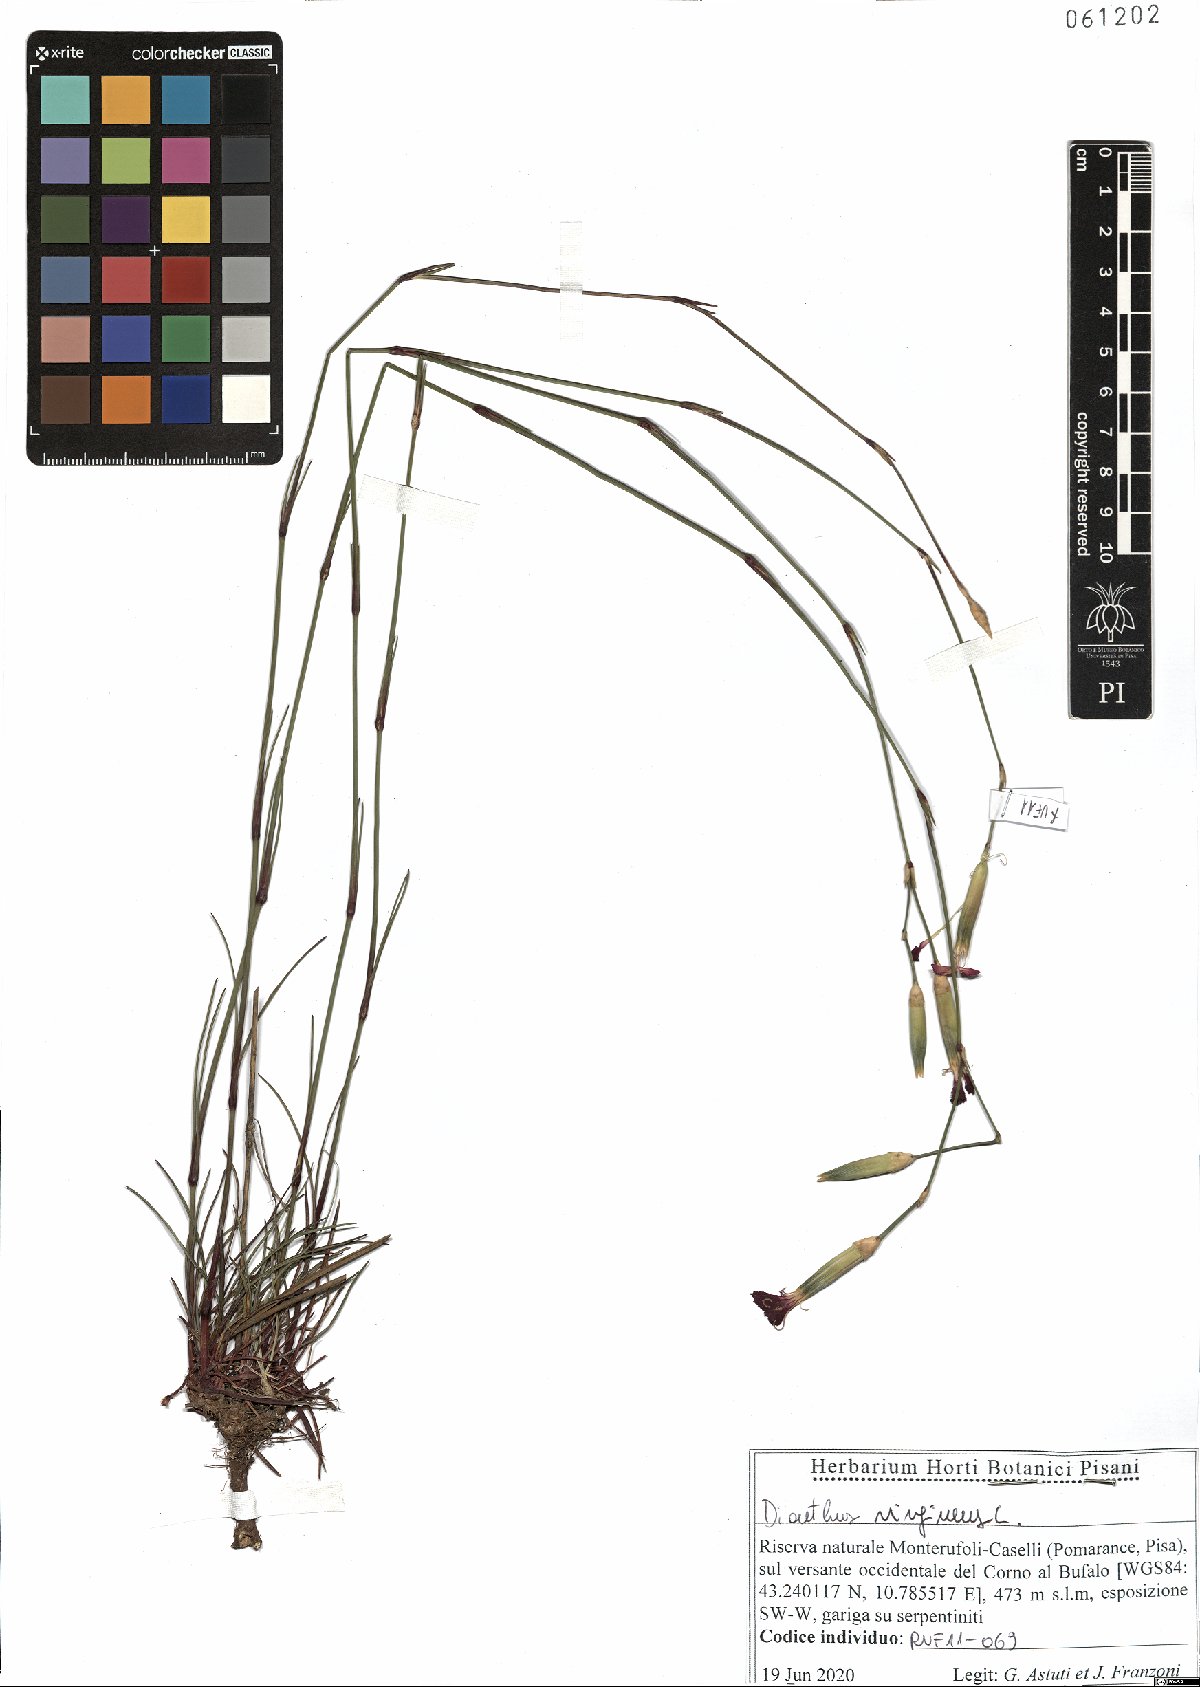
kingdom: Plantae
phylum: Tracheophyta
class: Magnoliopsida
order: Caryophyllales
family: Caryophyllaceae
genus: Dianthus
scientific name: Dianthus virgineus
